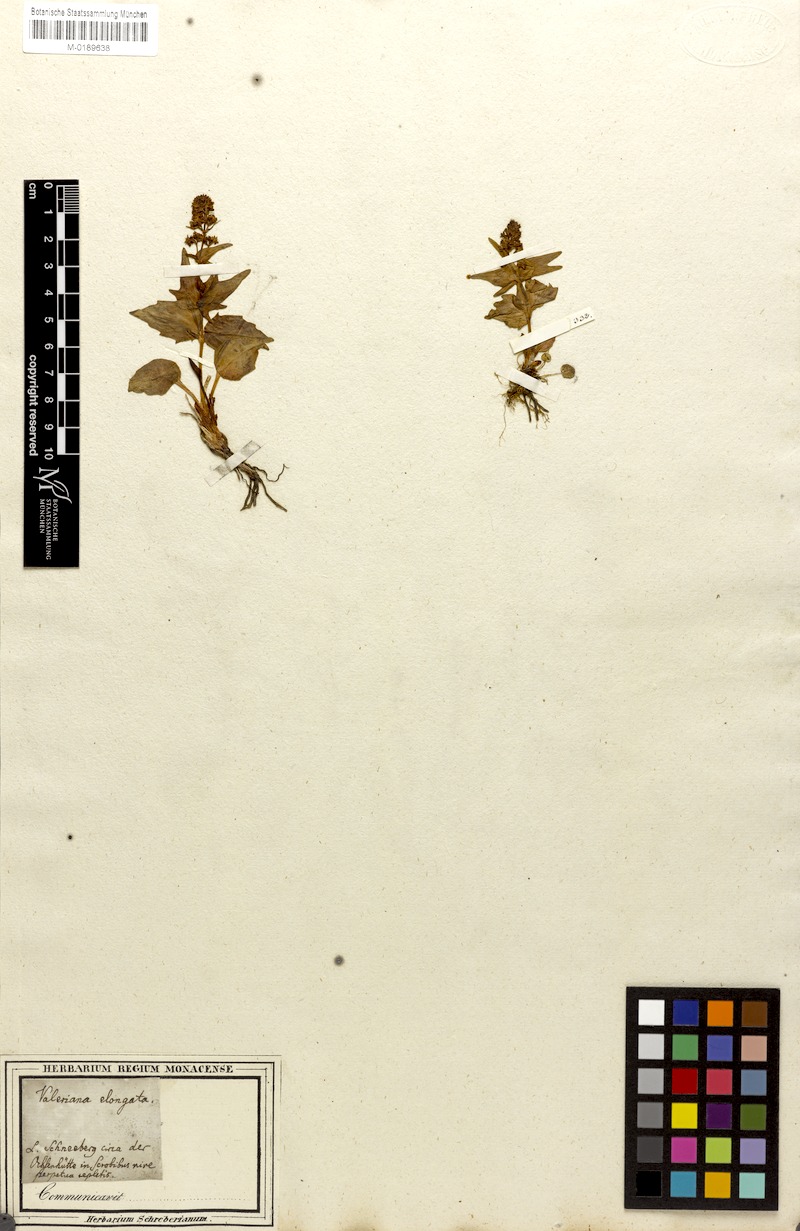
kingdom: Plantae
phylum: Tracheophyta
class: Magnoliopsida
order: Dipsacales
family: Caprifoliaceae
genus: Valeriana
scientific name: Valeriana elongata
